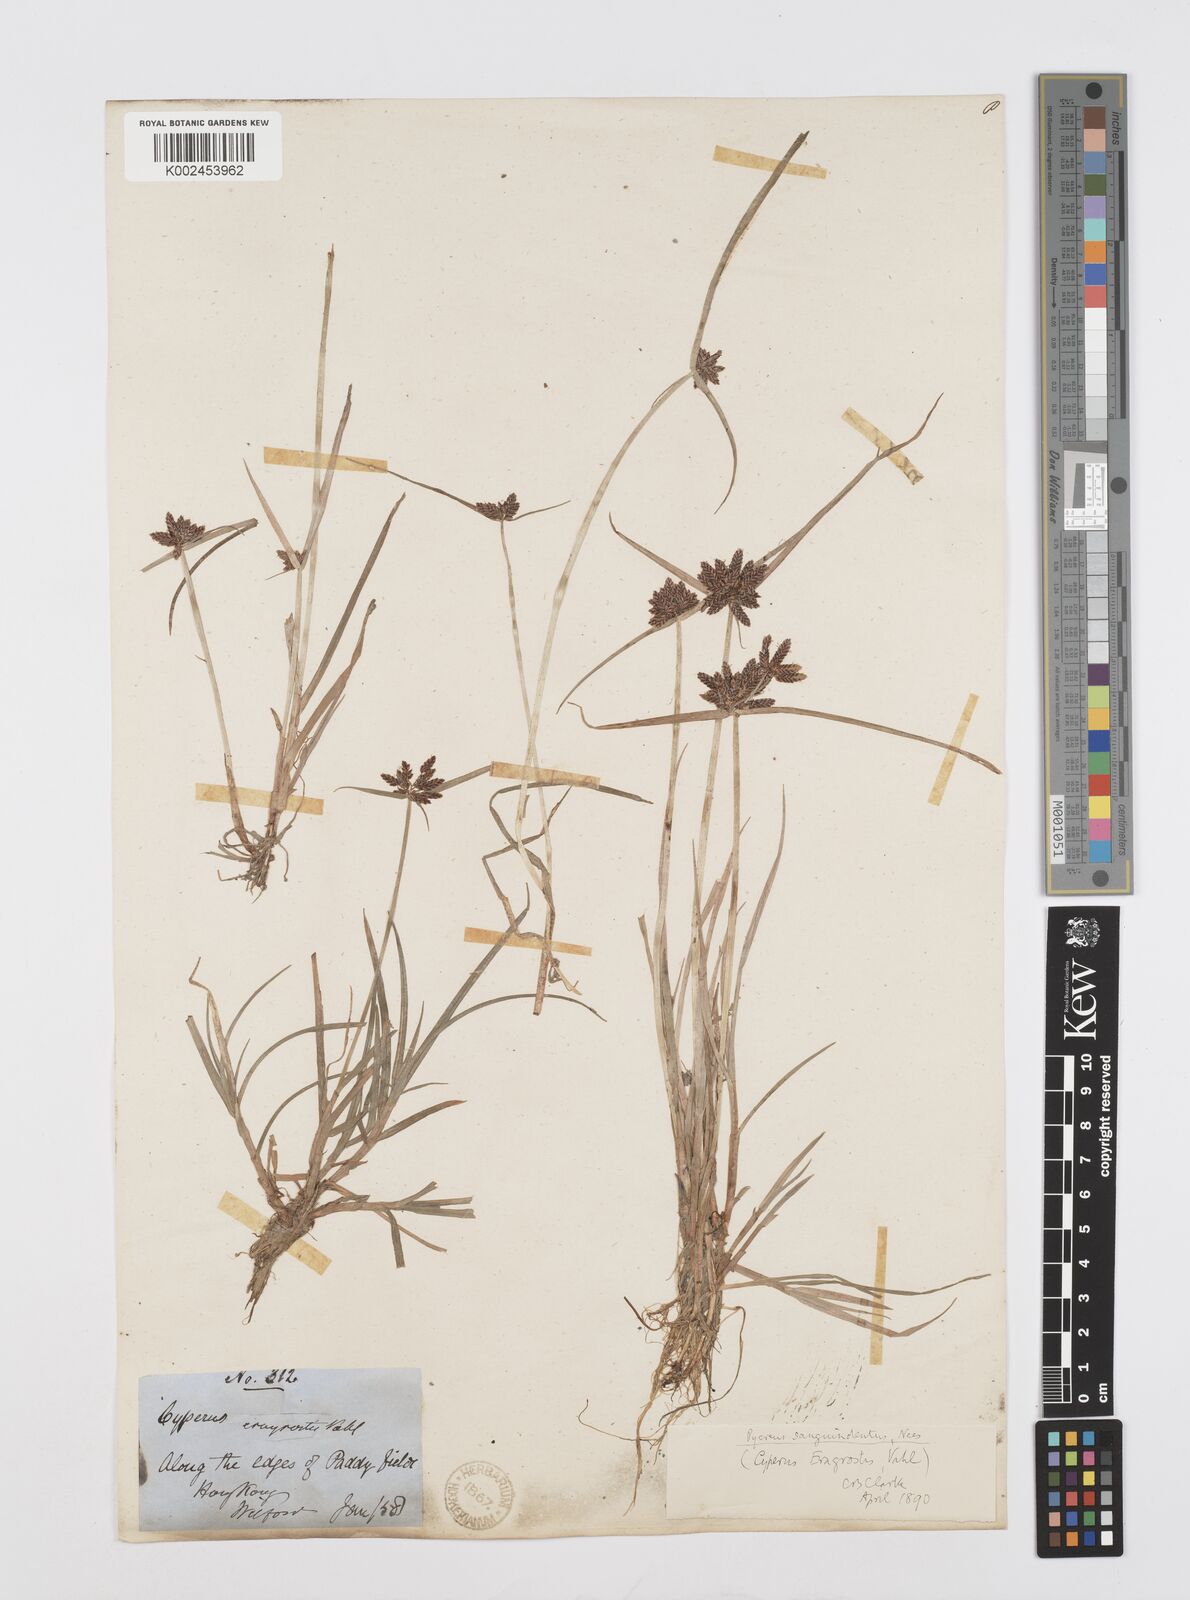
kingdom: Plantae
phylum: Tracheophyta
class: Liliopsida
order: Poales
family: Cyperaceae
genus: Cyperus
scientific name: Cyperus sanguinolentus
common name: Purpleglume flatsedge
